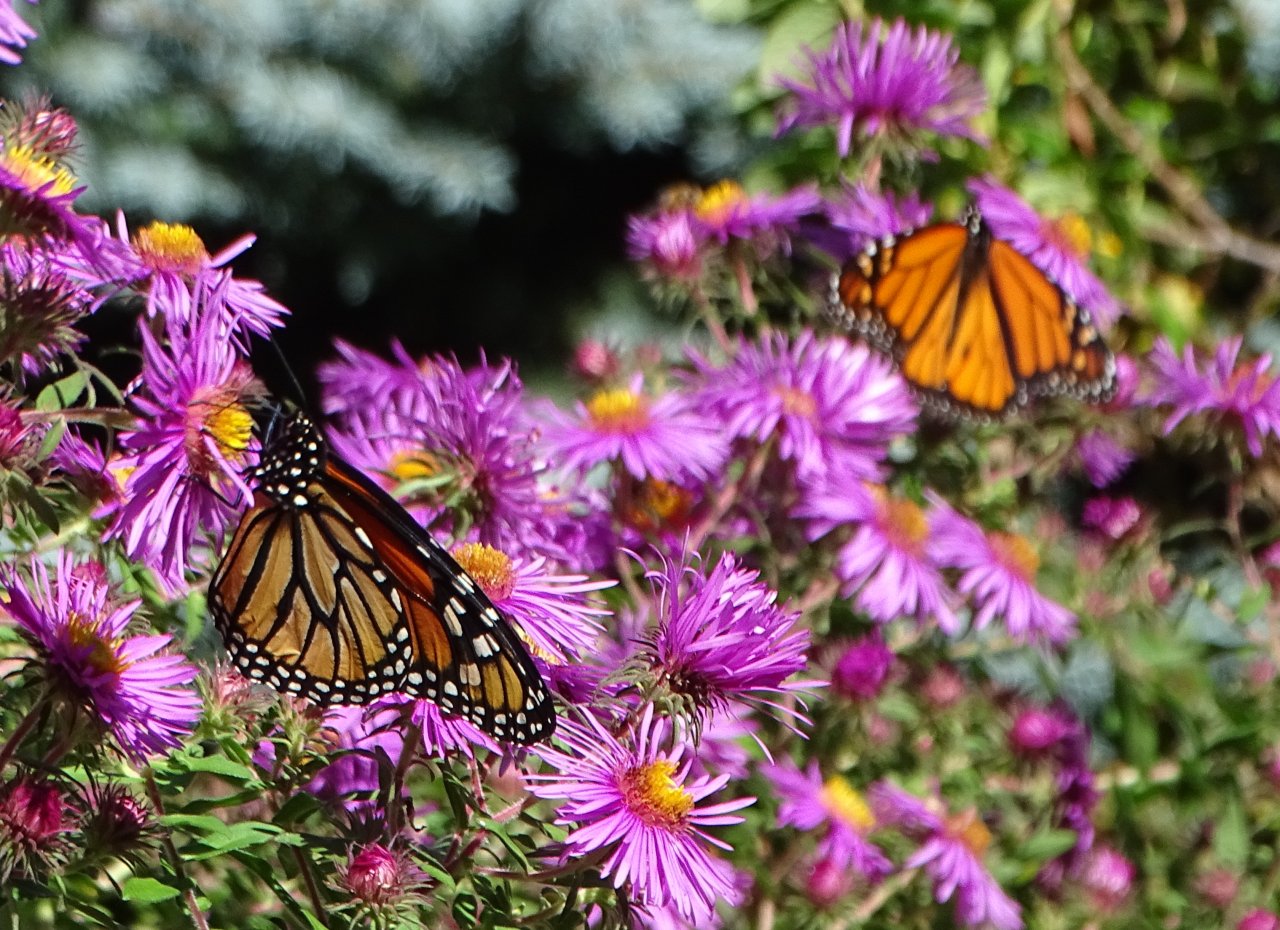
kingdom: Animalia
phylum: Arthropoda
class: Insecta
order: Lepidoptera
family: Nymphalidae
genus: Danaus
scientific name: Danaus plexippus
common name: Monarch
